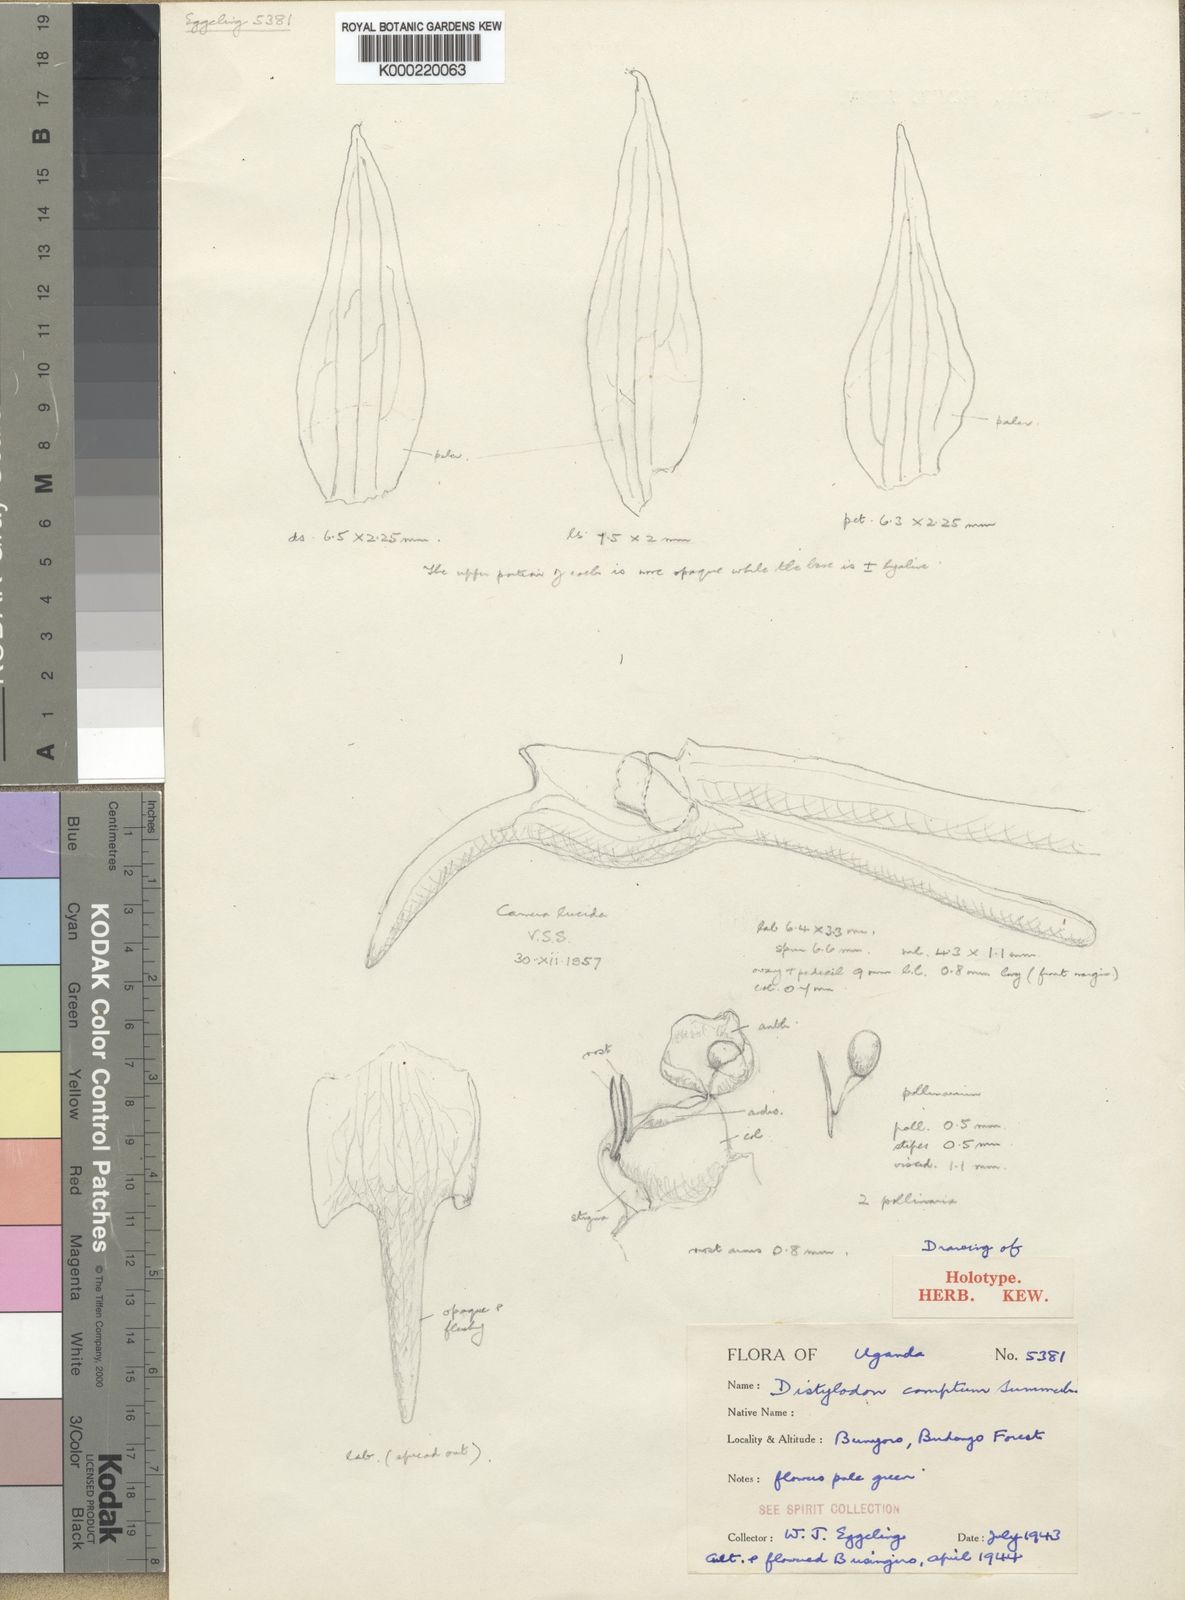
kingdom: Plantae
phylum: Tracheophyta
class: Liliopsida
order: Asparagales
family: Orchidaceae
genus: Triceratorhynchus
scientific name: Triceratorhynchus comptus
